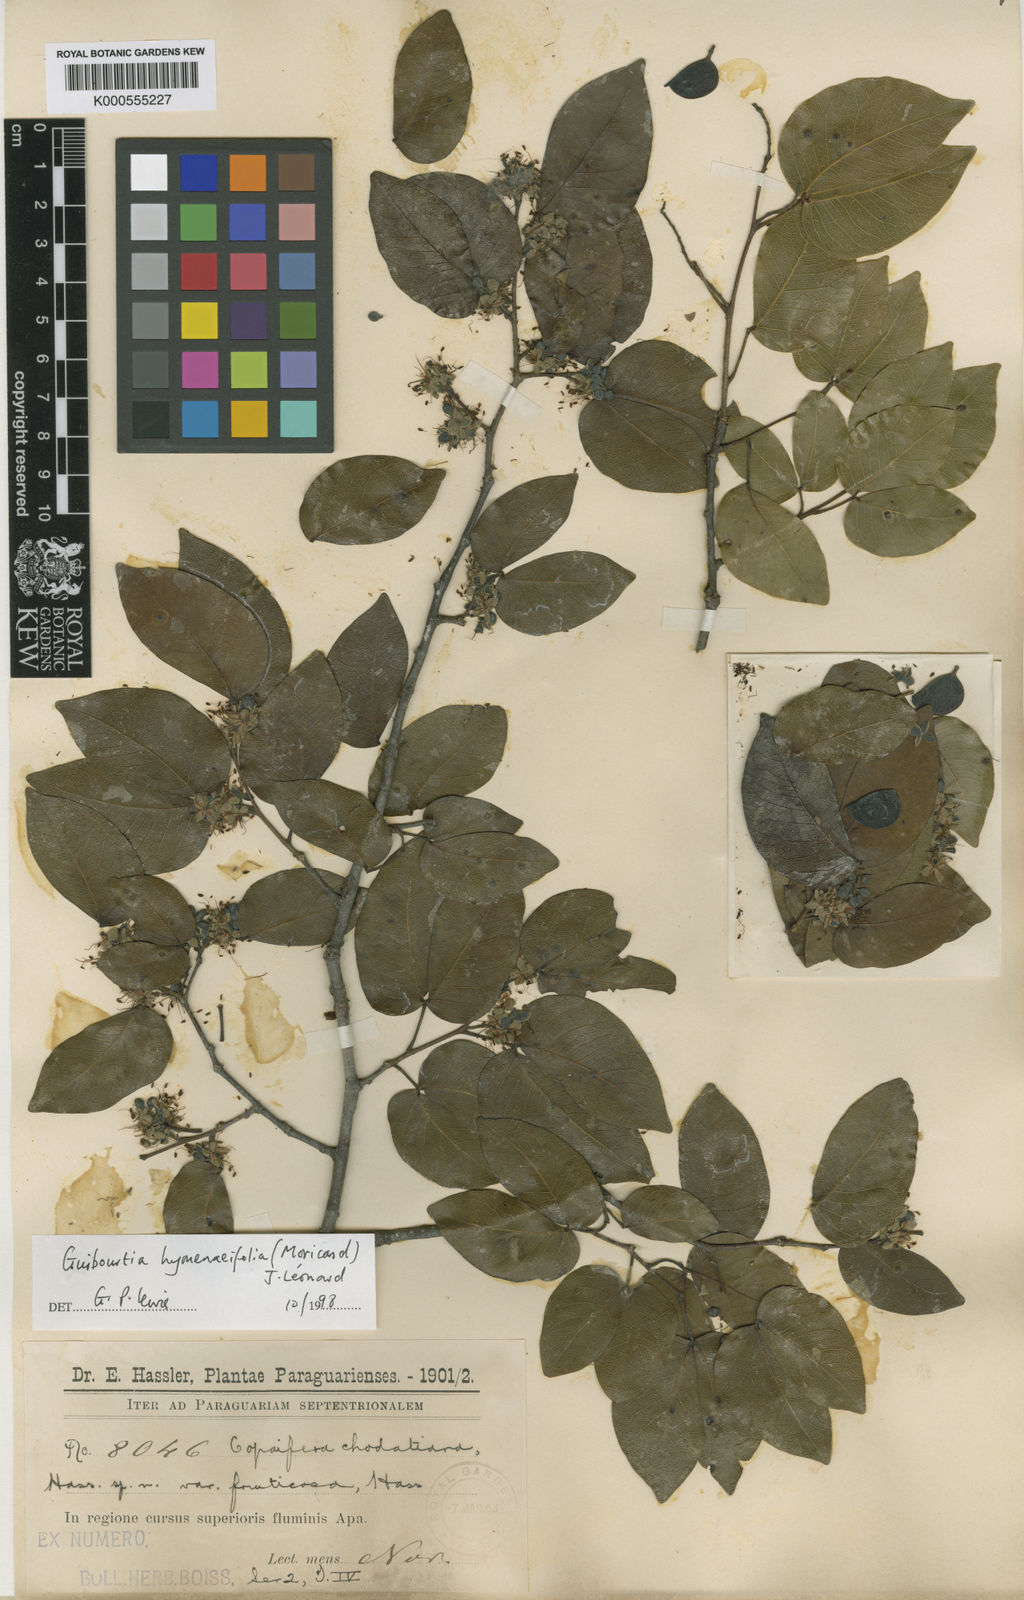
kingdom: Plantae
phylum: Tracheophyta
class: Magnoliopsida
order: Fabales
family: Fabaceae
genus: Guibourtia
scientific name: Guibourtia chodatiana
